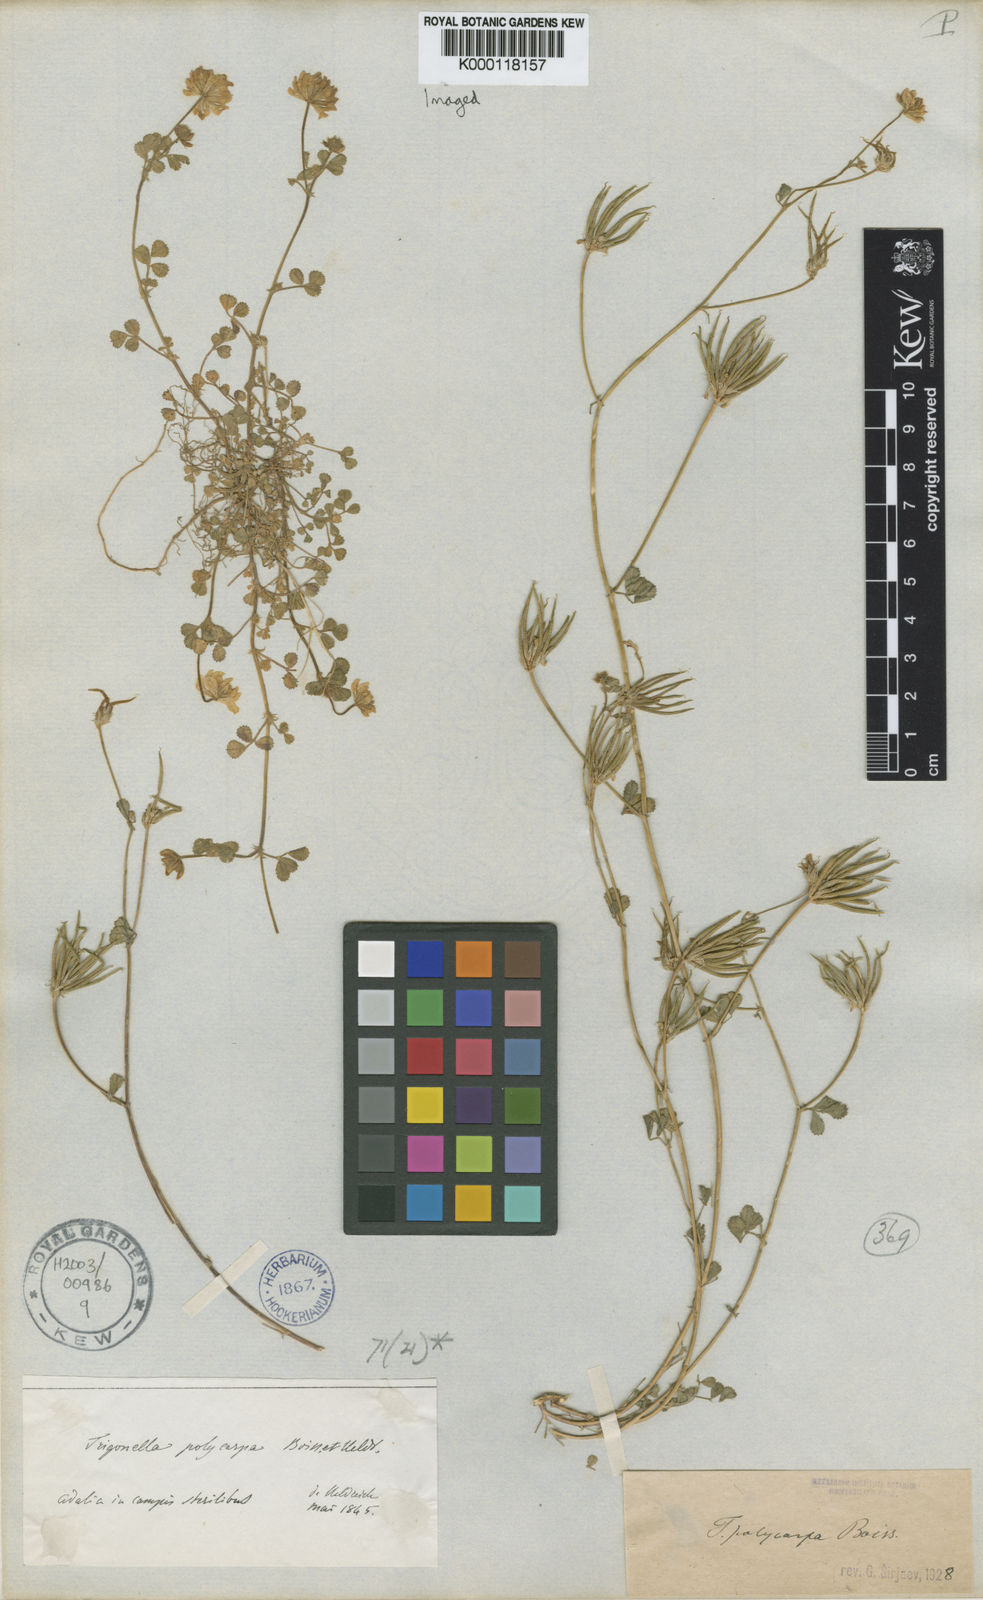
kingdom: Plantae
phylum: Tracheophyta
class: Magnoliopsida
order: Fabales
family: Fabaceae
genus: Medicago
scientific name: Medicago heldreichii
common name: Heldreich's alfalfa
